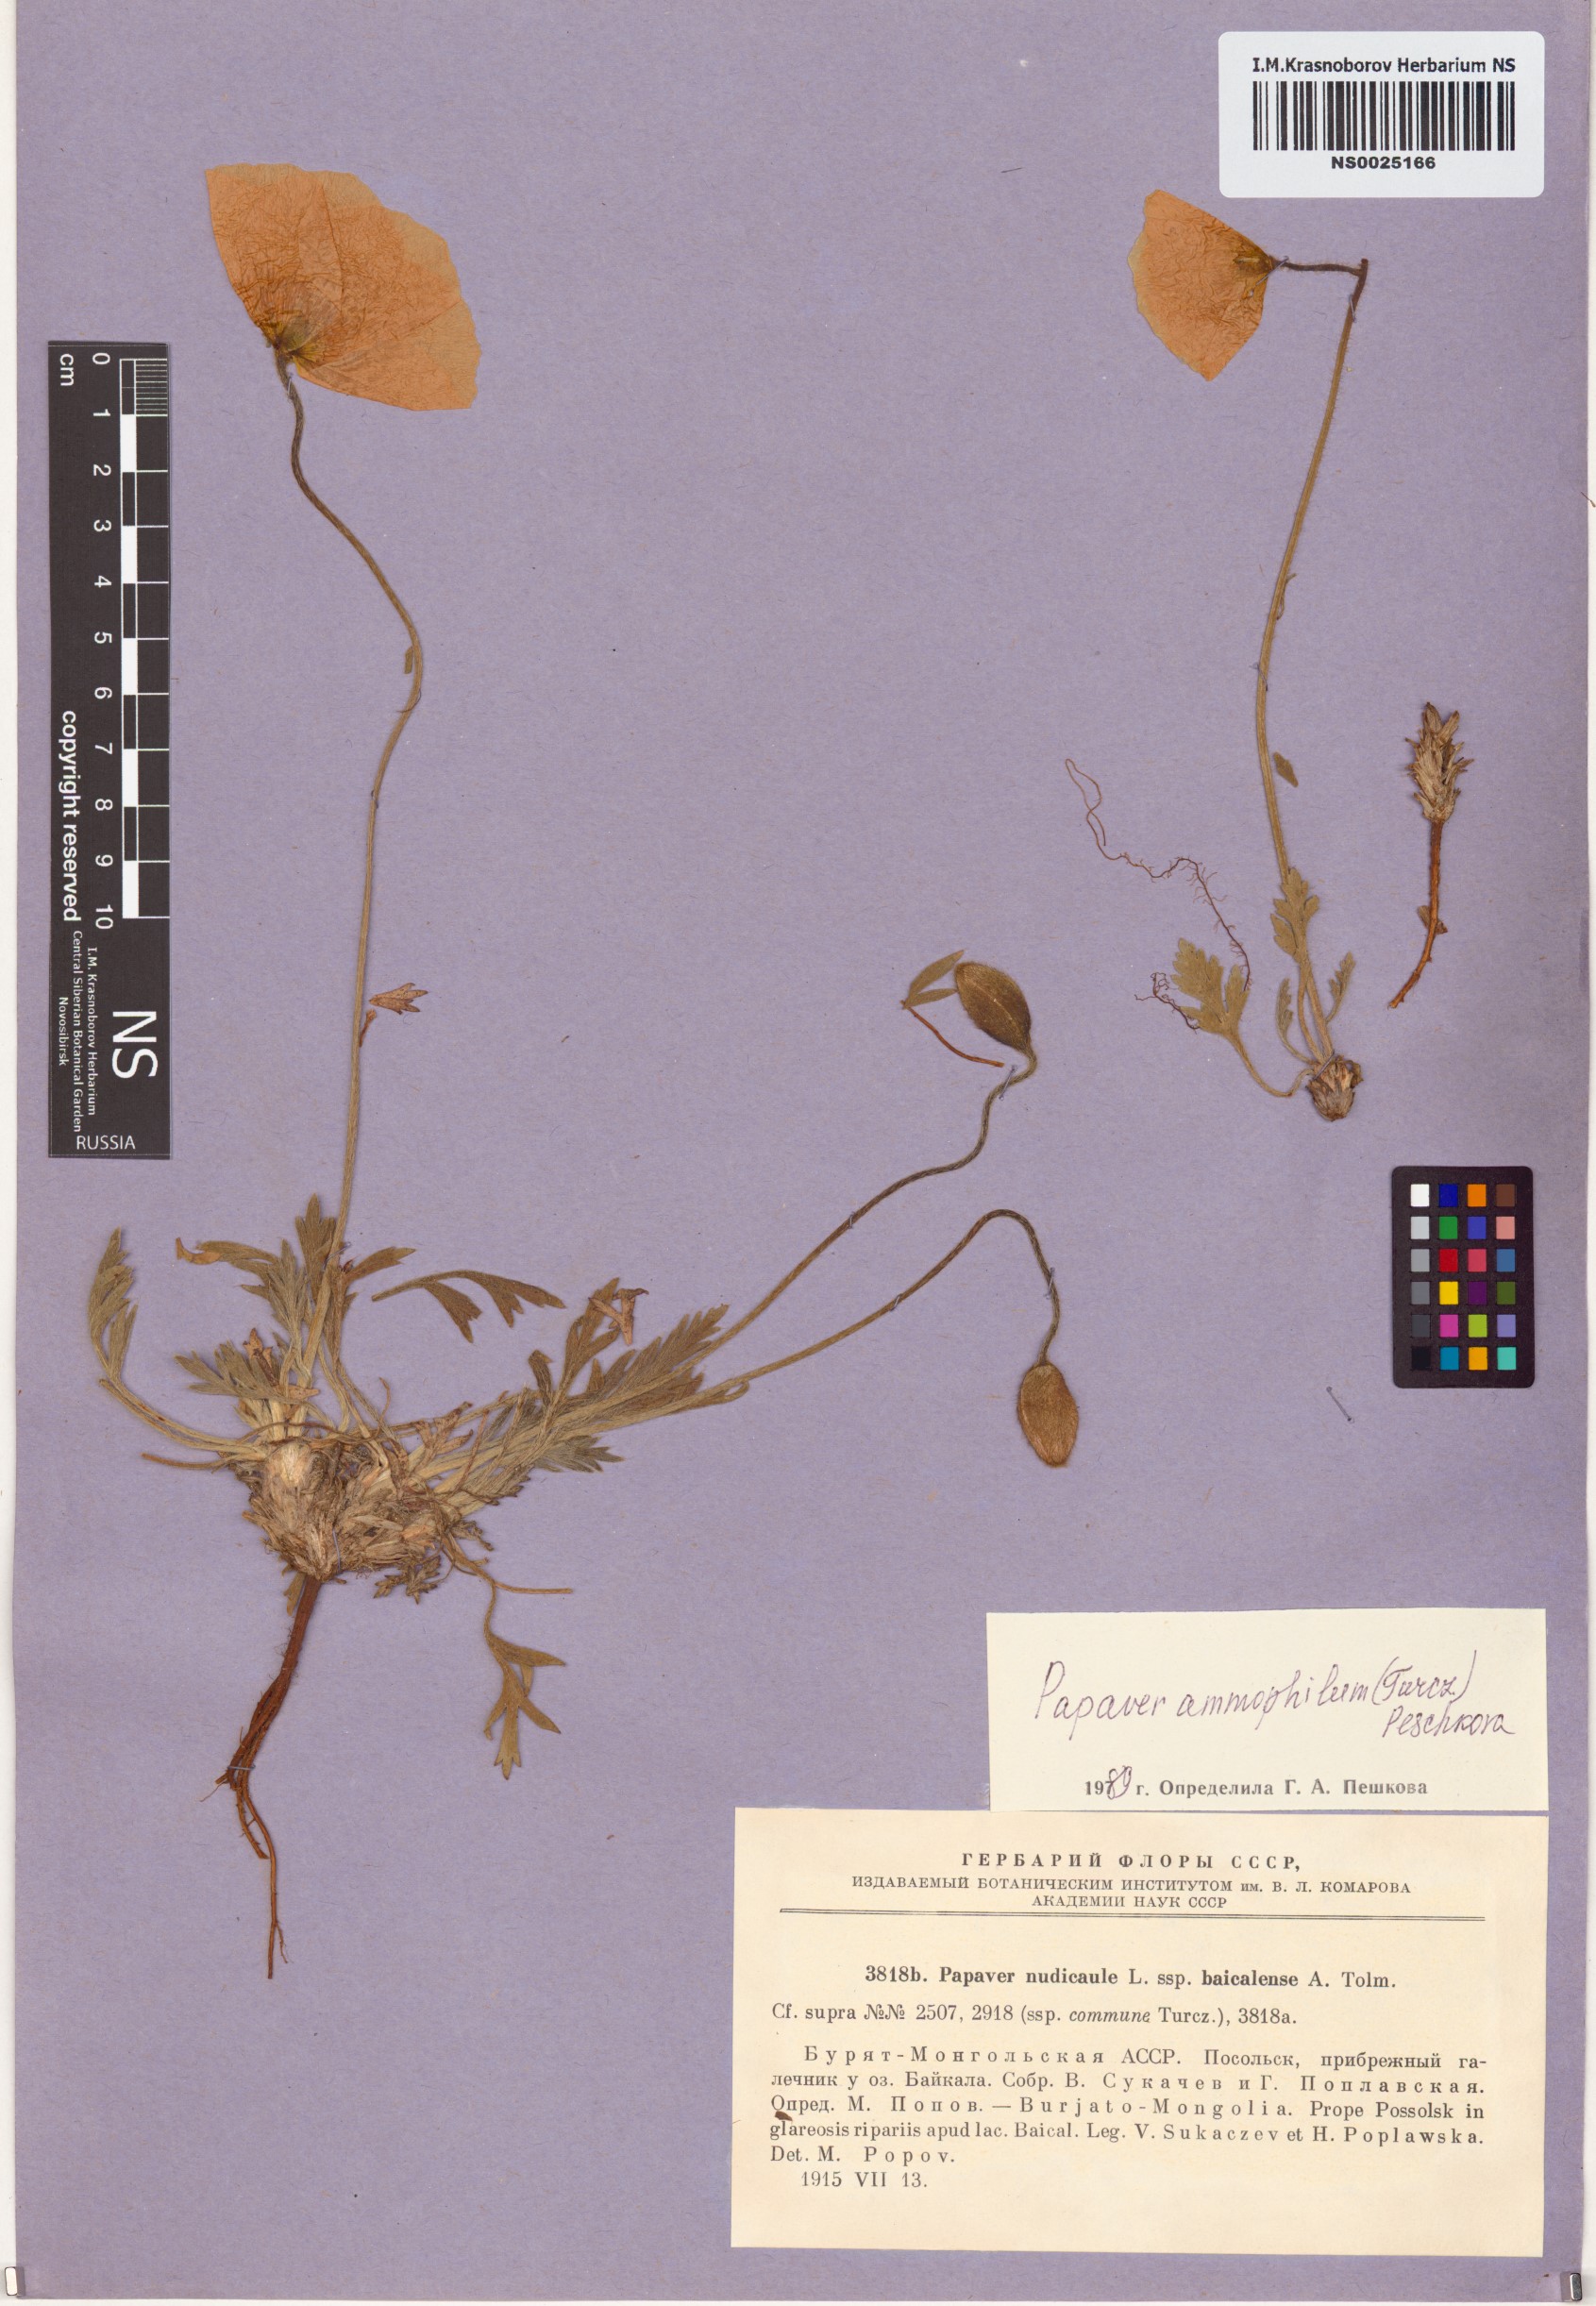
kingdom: Plantae
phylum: Tracheophyta
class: Magnoliopsida
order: Ranunculales
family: Papaveraceae
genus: Papaver
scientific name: Papaver nudicaule
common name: Arctic poppy
